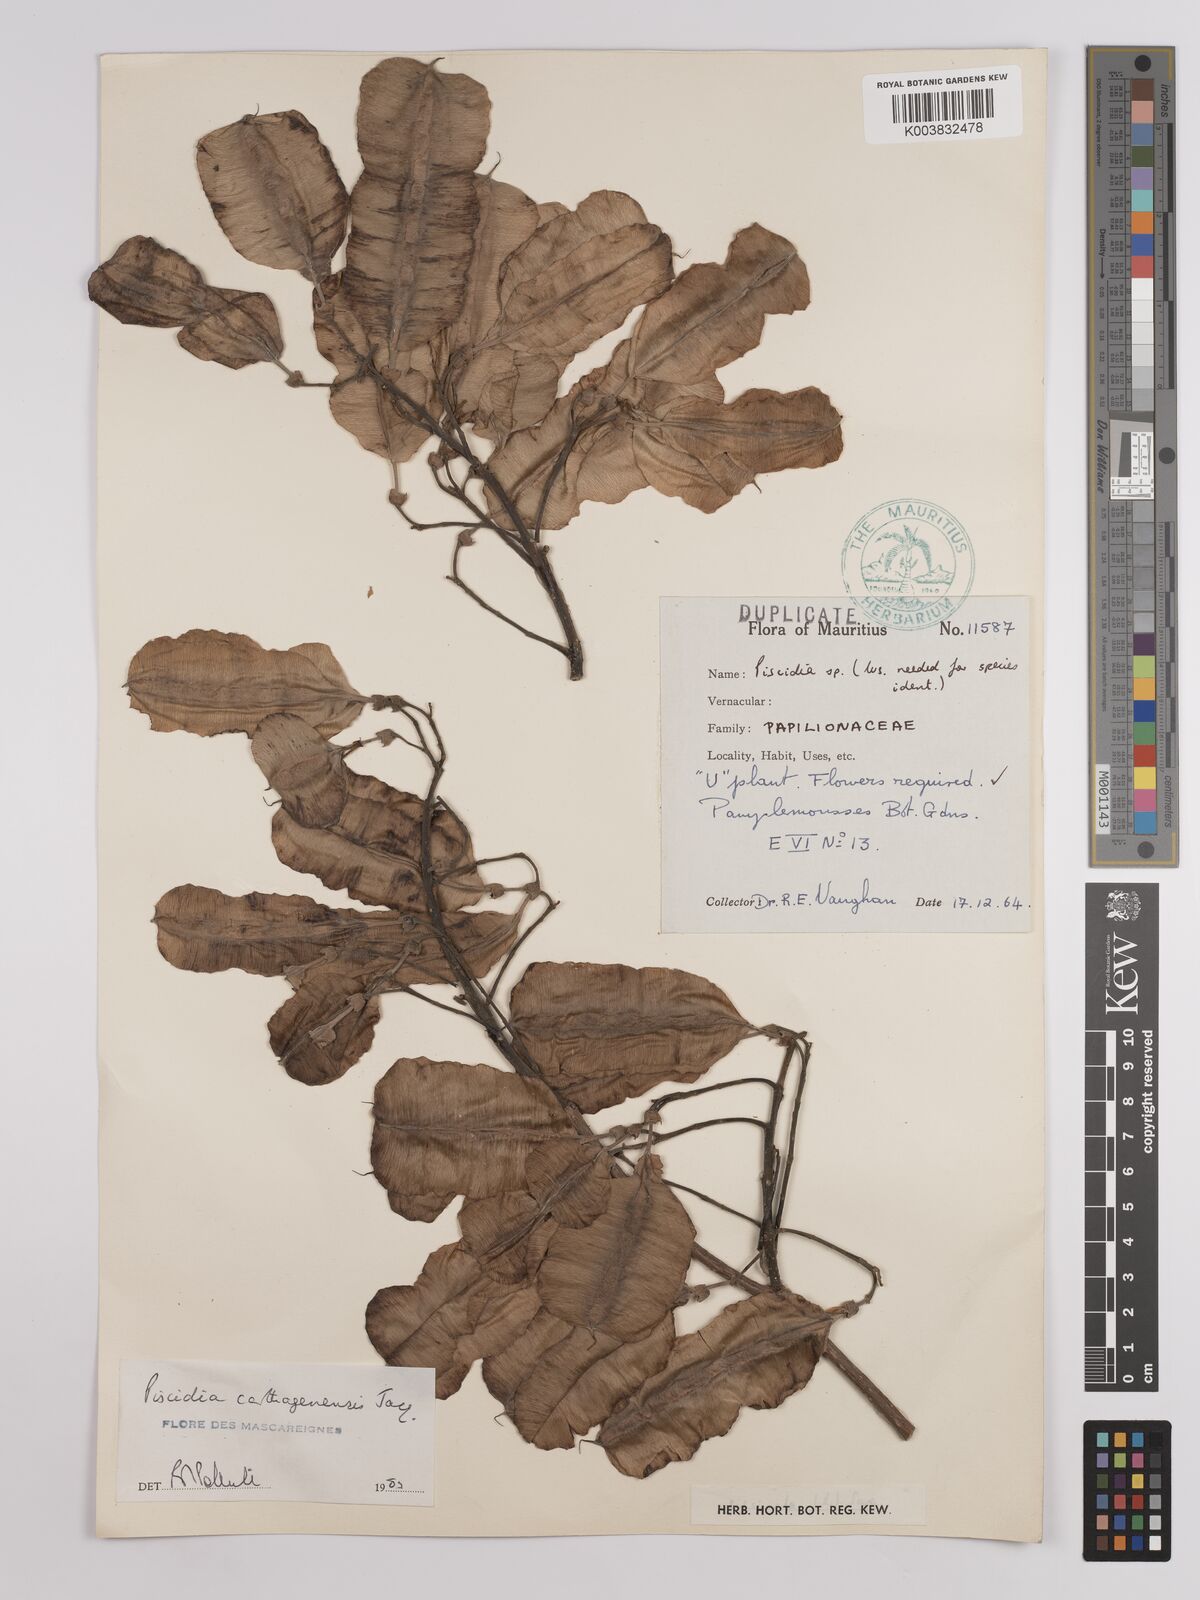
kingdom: Plantae
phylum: Tracheophyta
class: Magnoliopsida
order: Fabales
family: Fabaceae
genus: Piscidia
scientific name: Piscidia carthagenensis
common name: Stinkwood
